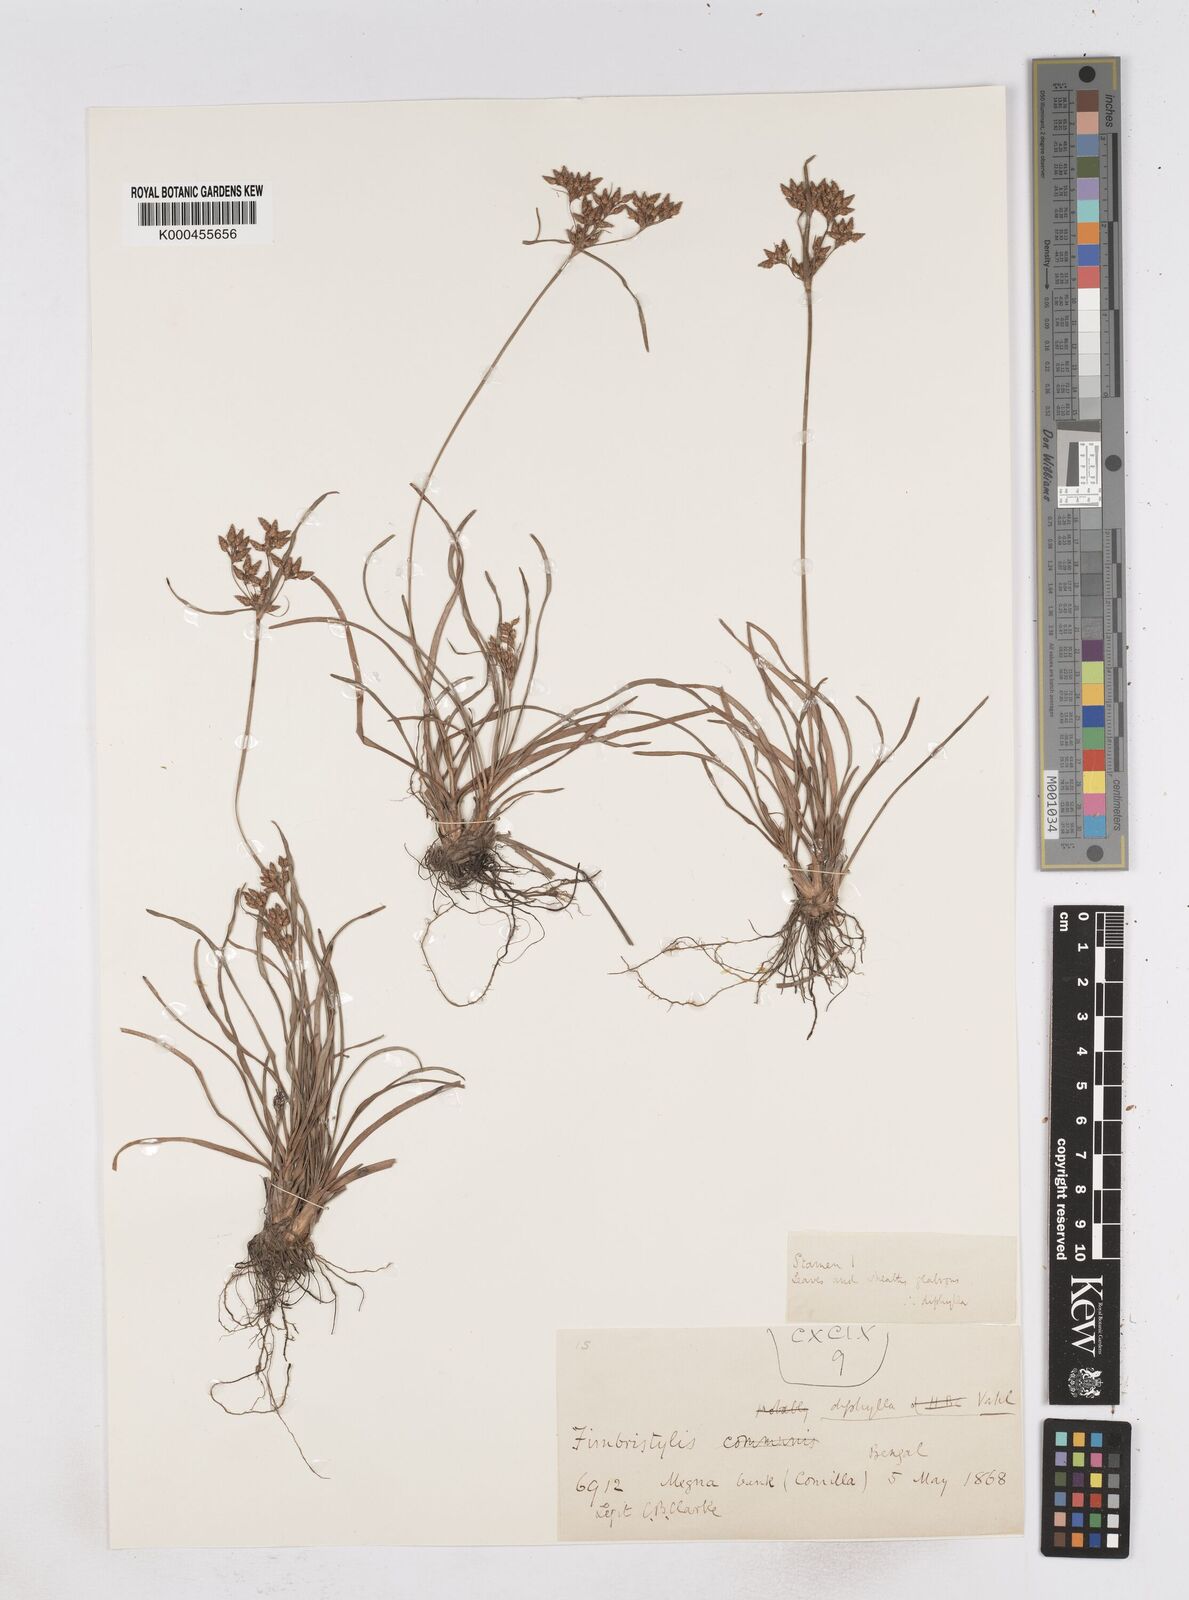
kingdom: Plantae
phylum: Tracheophyta
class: Liliopsida
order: Poales
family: Cyperaceae
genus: Fimbristylis
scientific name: Fimbristylis dichotoma
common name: Forked fimbry
